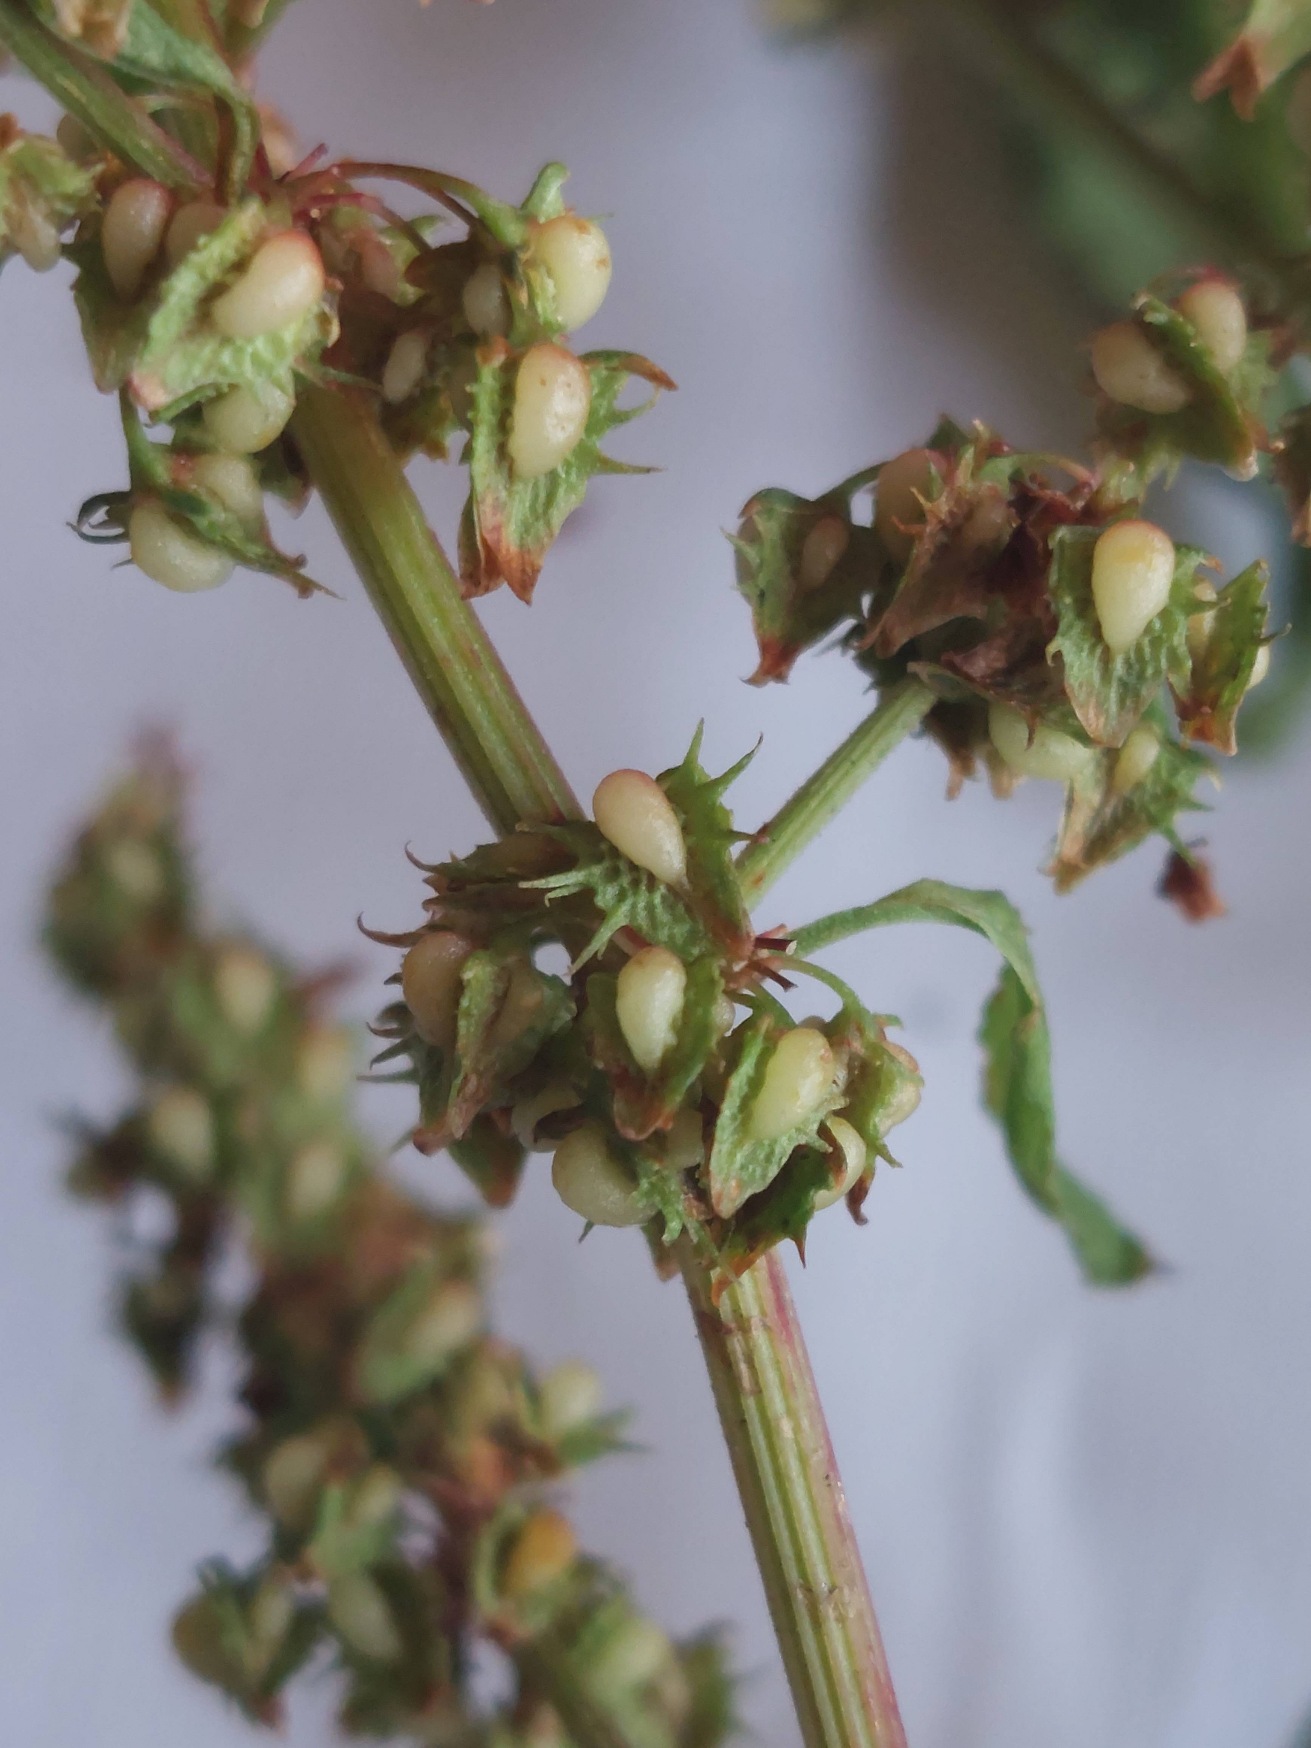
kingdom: Plantae
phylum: Tracheophyta
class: Magnoliopsida
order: Caryophyllales
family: Polygonaceae
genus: Rumex
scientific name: Rumex obtusifolius
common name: Butbladet skræppe
